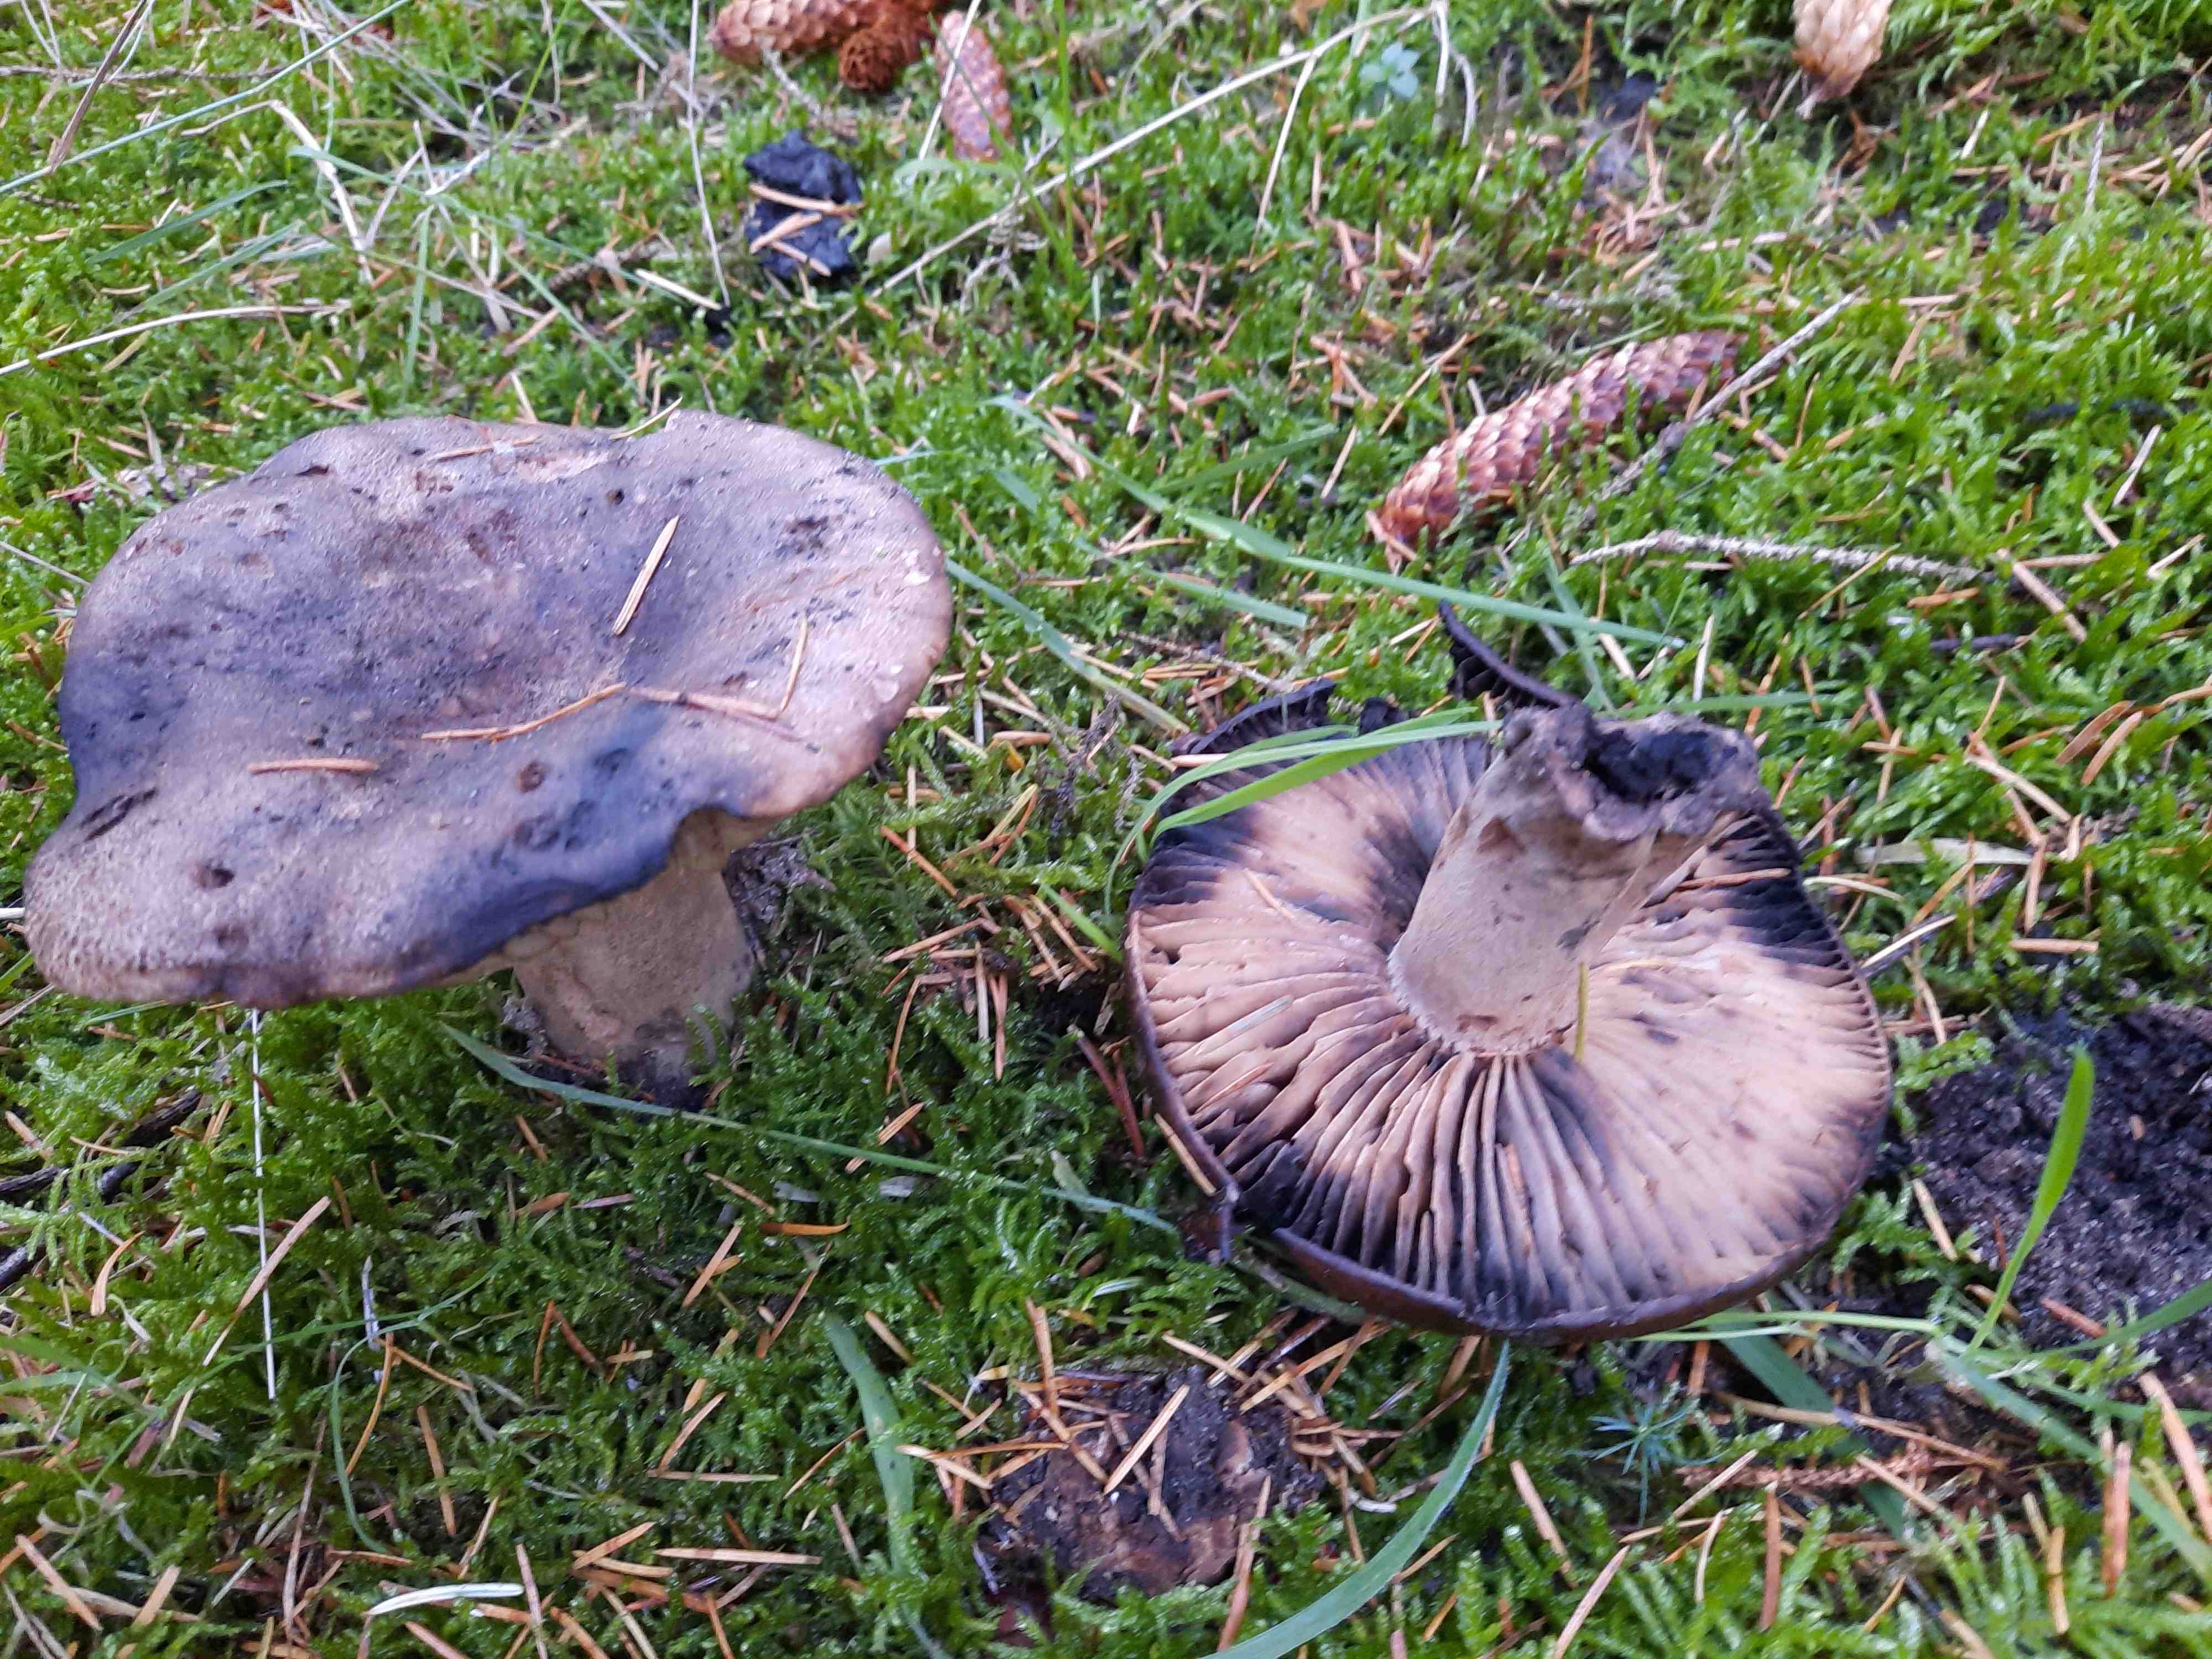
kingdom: Fungi
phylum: Basidiomycota
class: Agaricomycetes
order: Russulales
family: Russulaceae
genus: Russula
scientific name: Russula adusta
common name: sværtende skørhat
